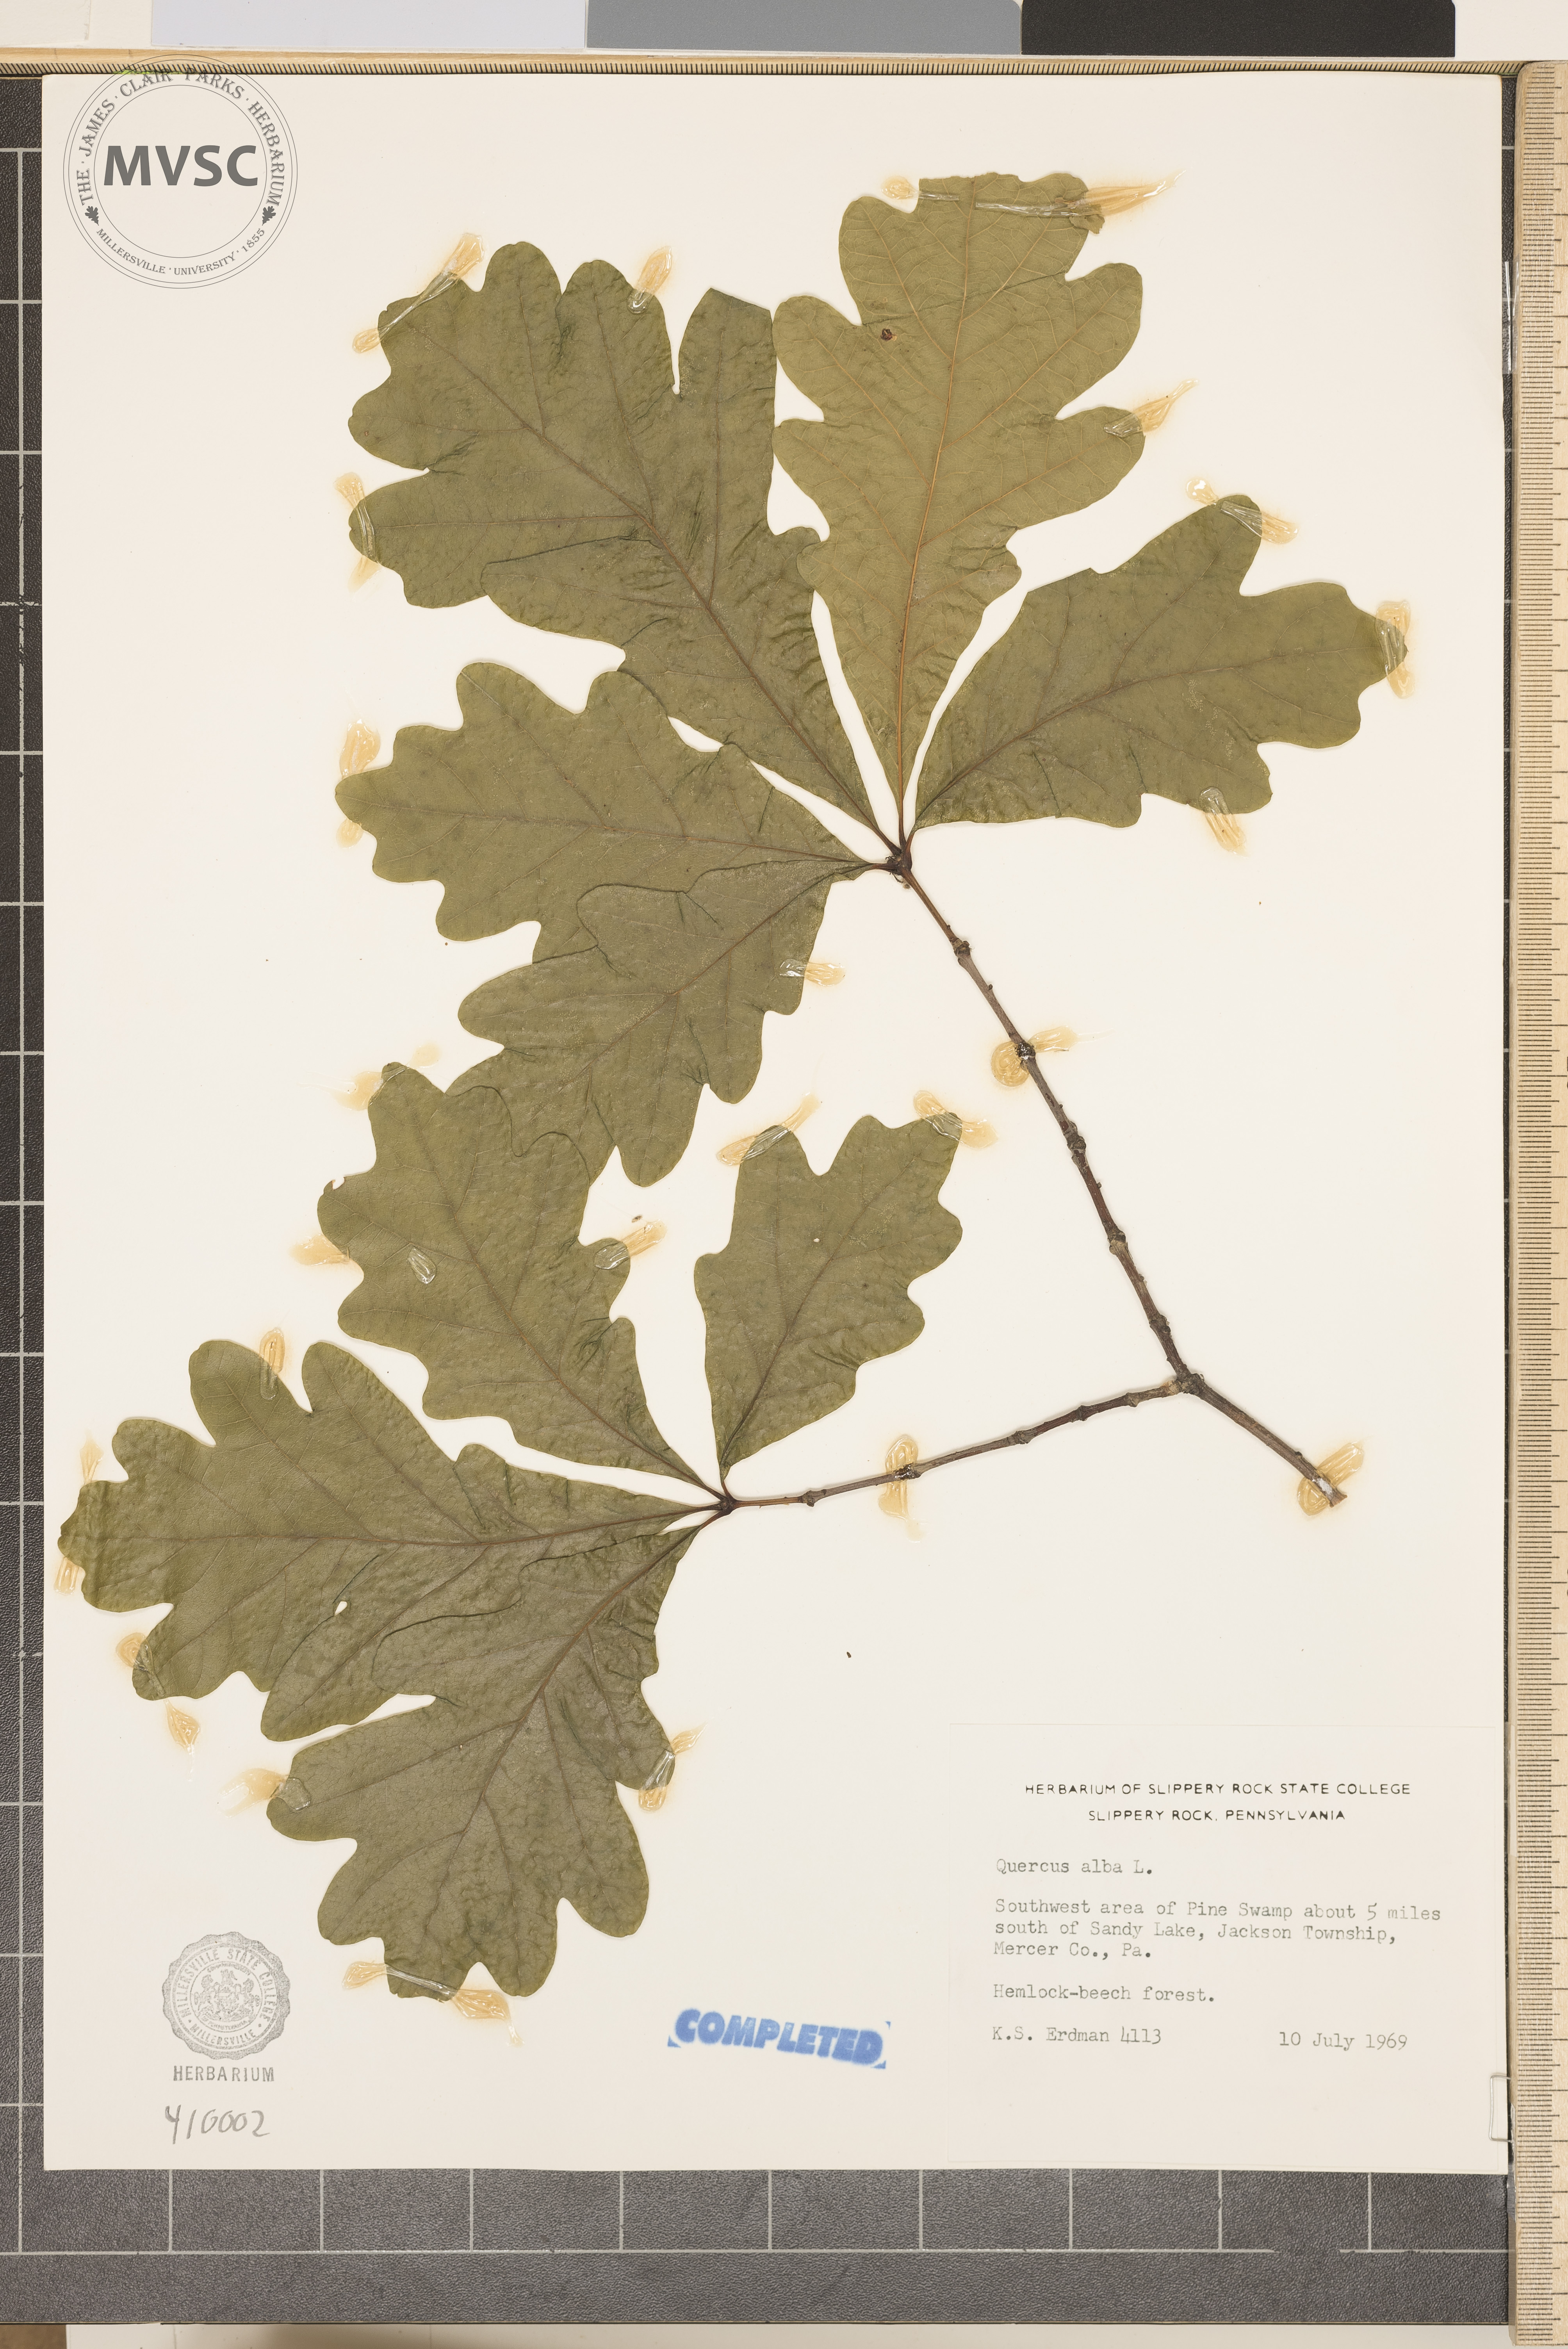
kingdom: Plantae
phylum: Tracheophyta
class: Magnoliopsida
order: Fagales
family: Fagaceae
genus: Quercus
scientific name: Quercus alba
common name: White oak
